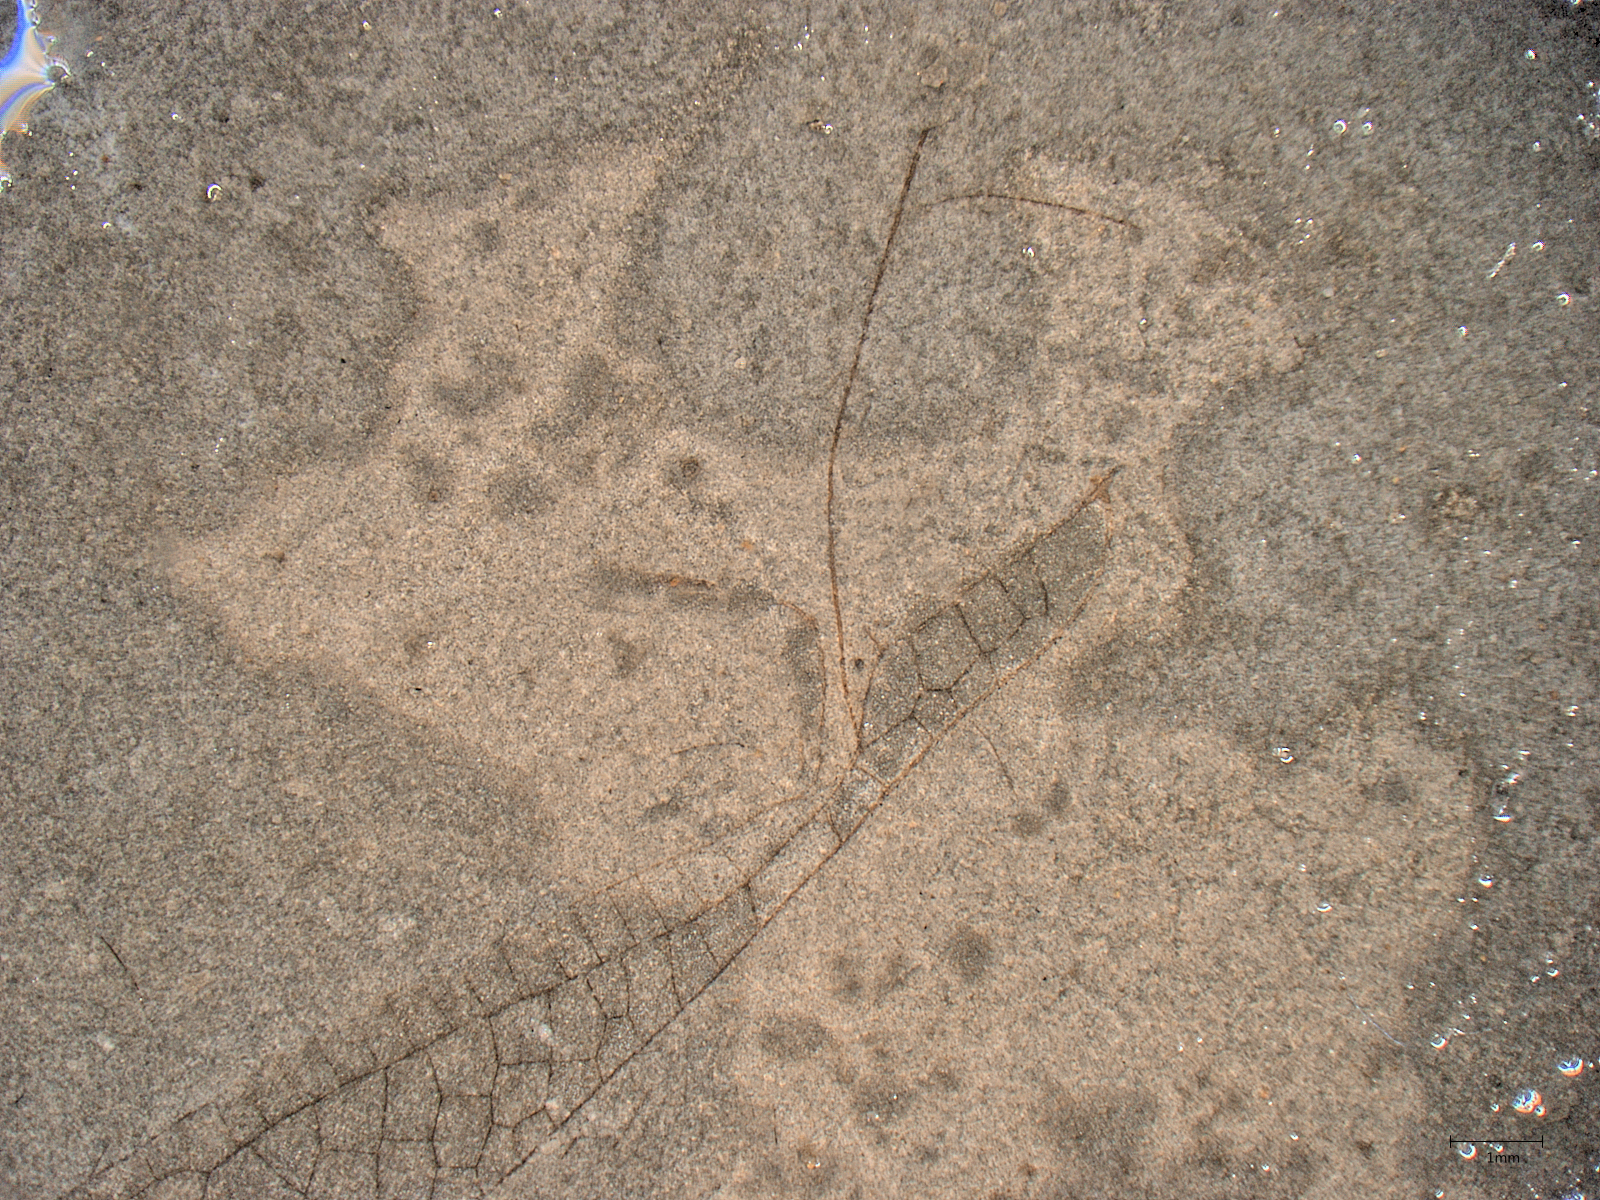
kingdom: Animalia
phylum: Arthropoda
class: Insecta
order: Odonata
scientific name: Odonata
